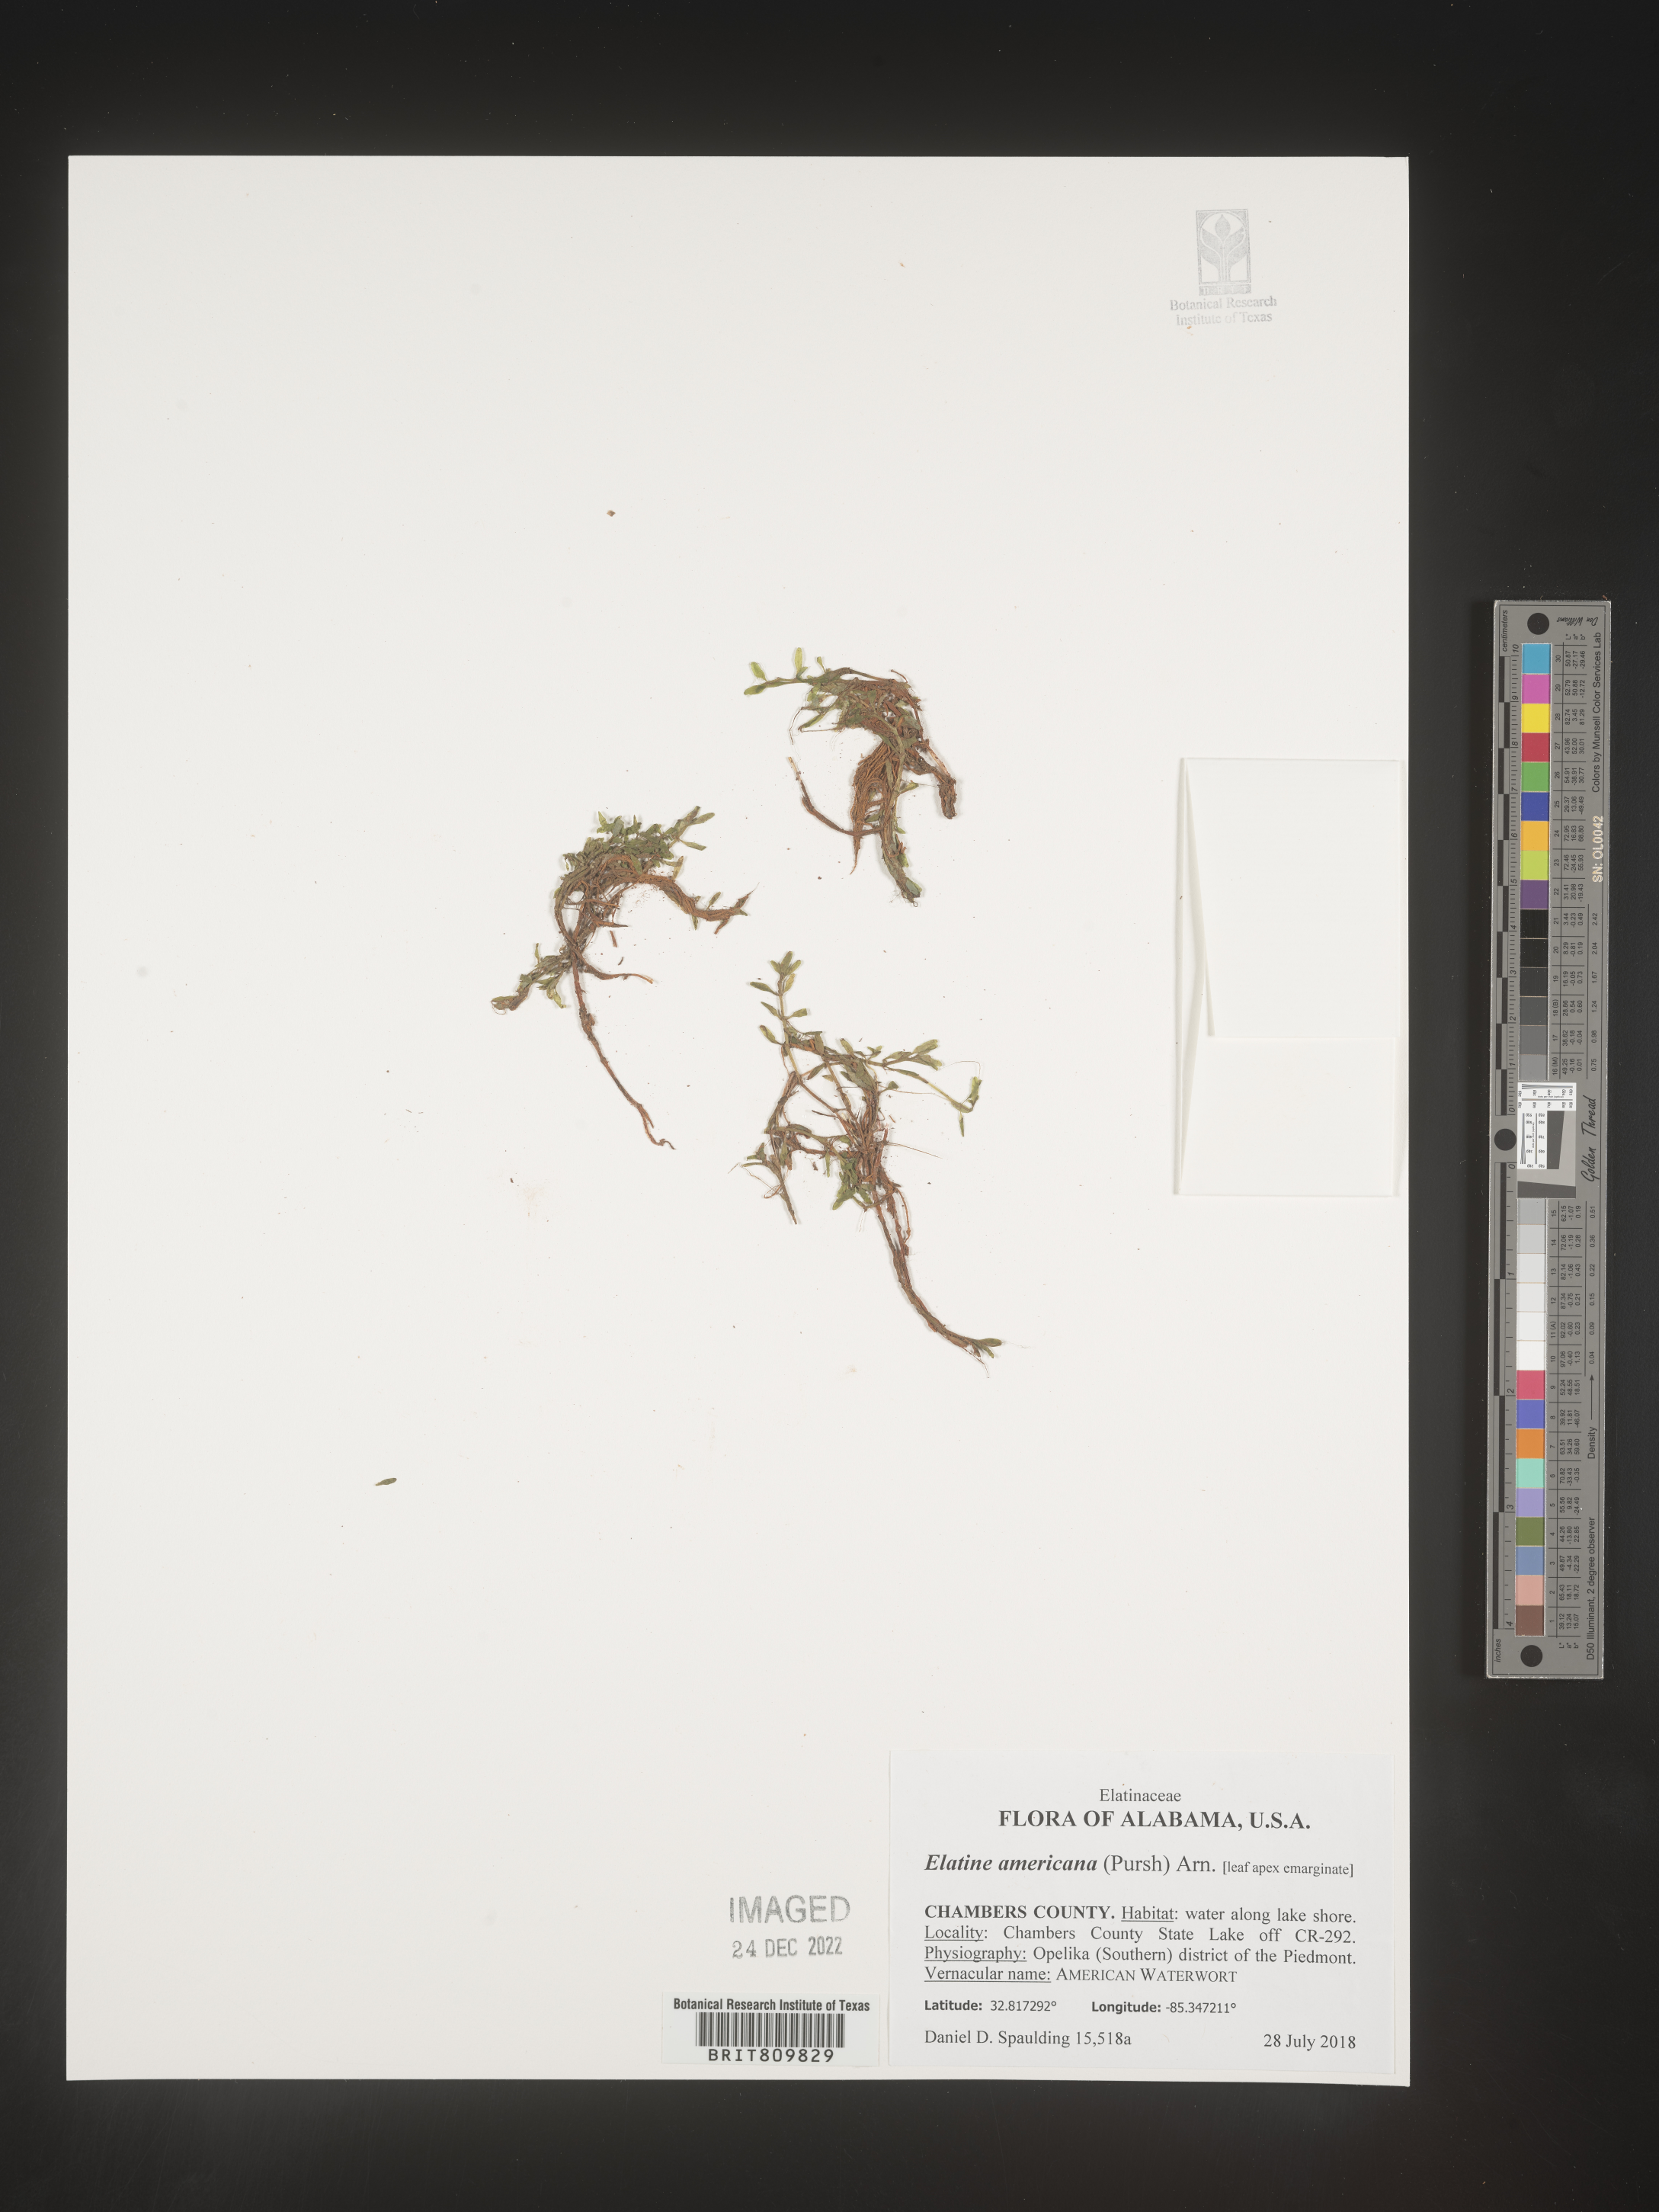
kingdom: Plantae
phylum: Tracheophyta
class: Magnoliopsida
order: Malpighiales
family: Elatinaceae
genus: Elatine
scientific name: Elatine
